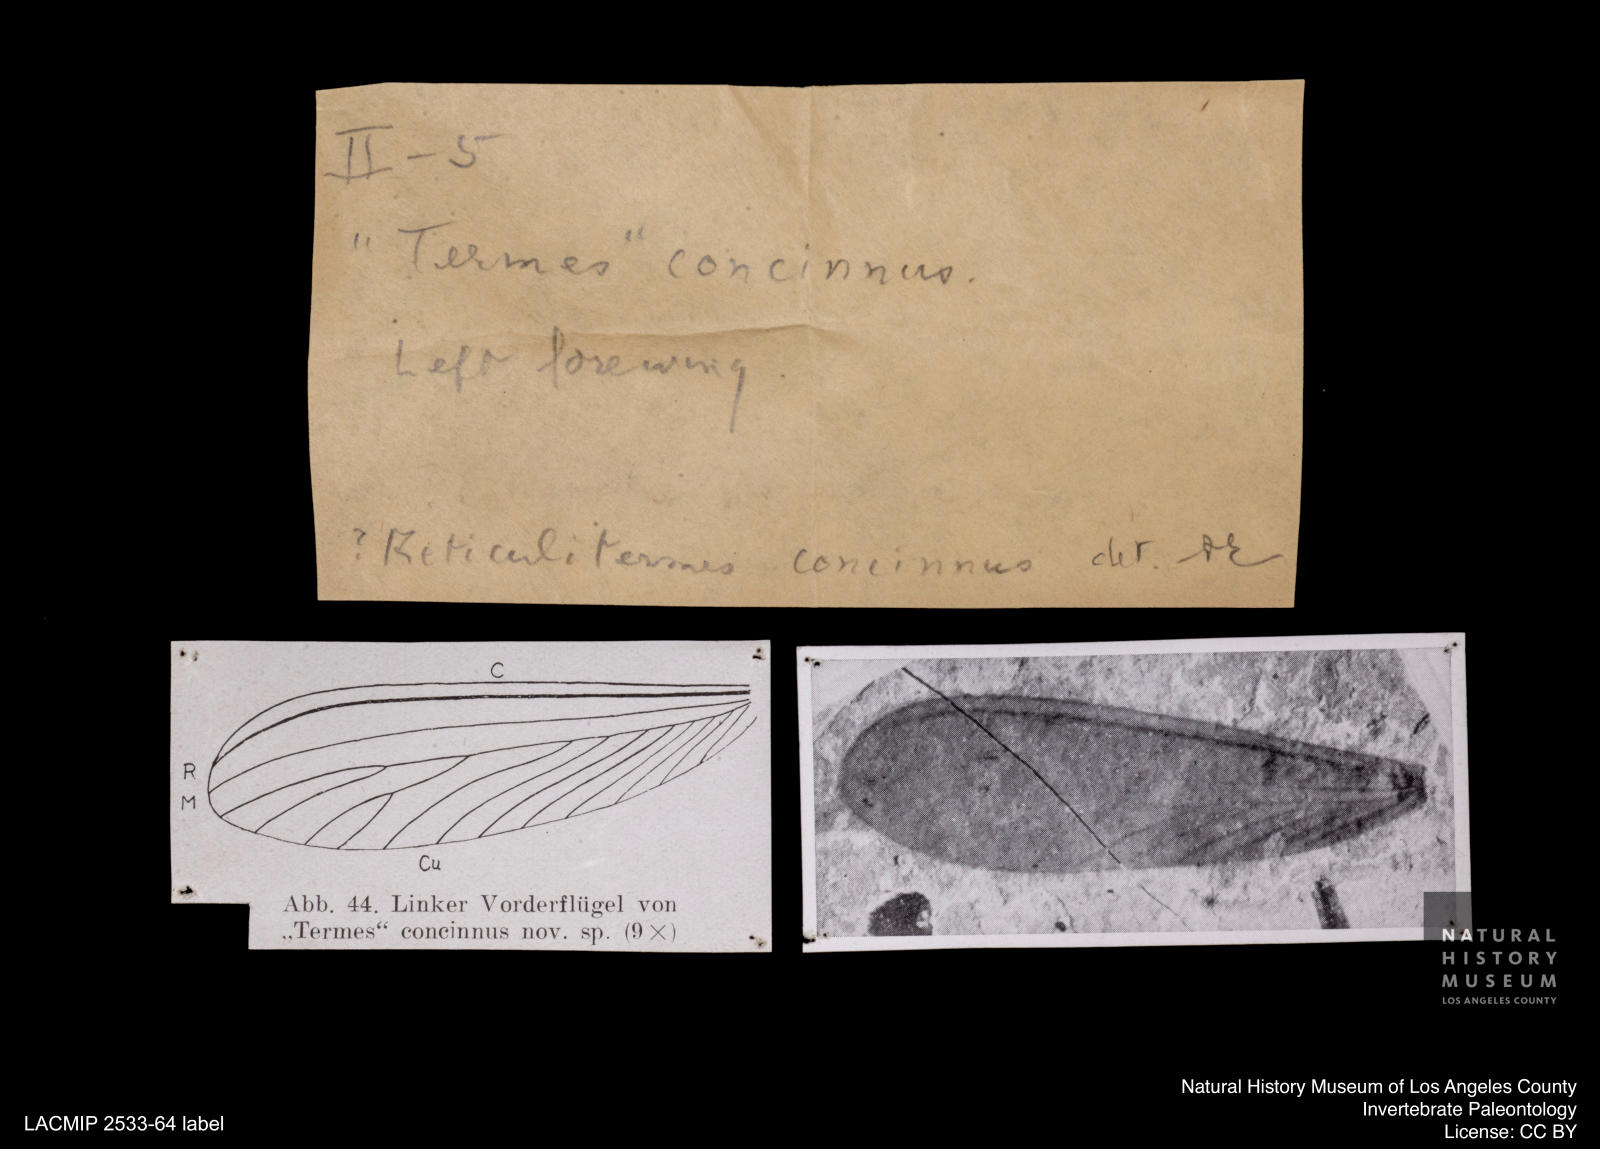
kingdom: Animalia
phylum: Arthropoda
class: Insecta
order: Blattodea
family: Rhinotermitidae
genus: Reticulitermes
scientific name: Reticulitermes holmgreni
